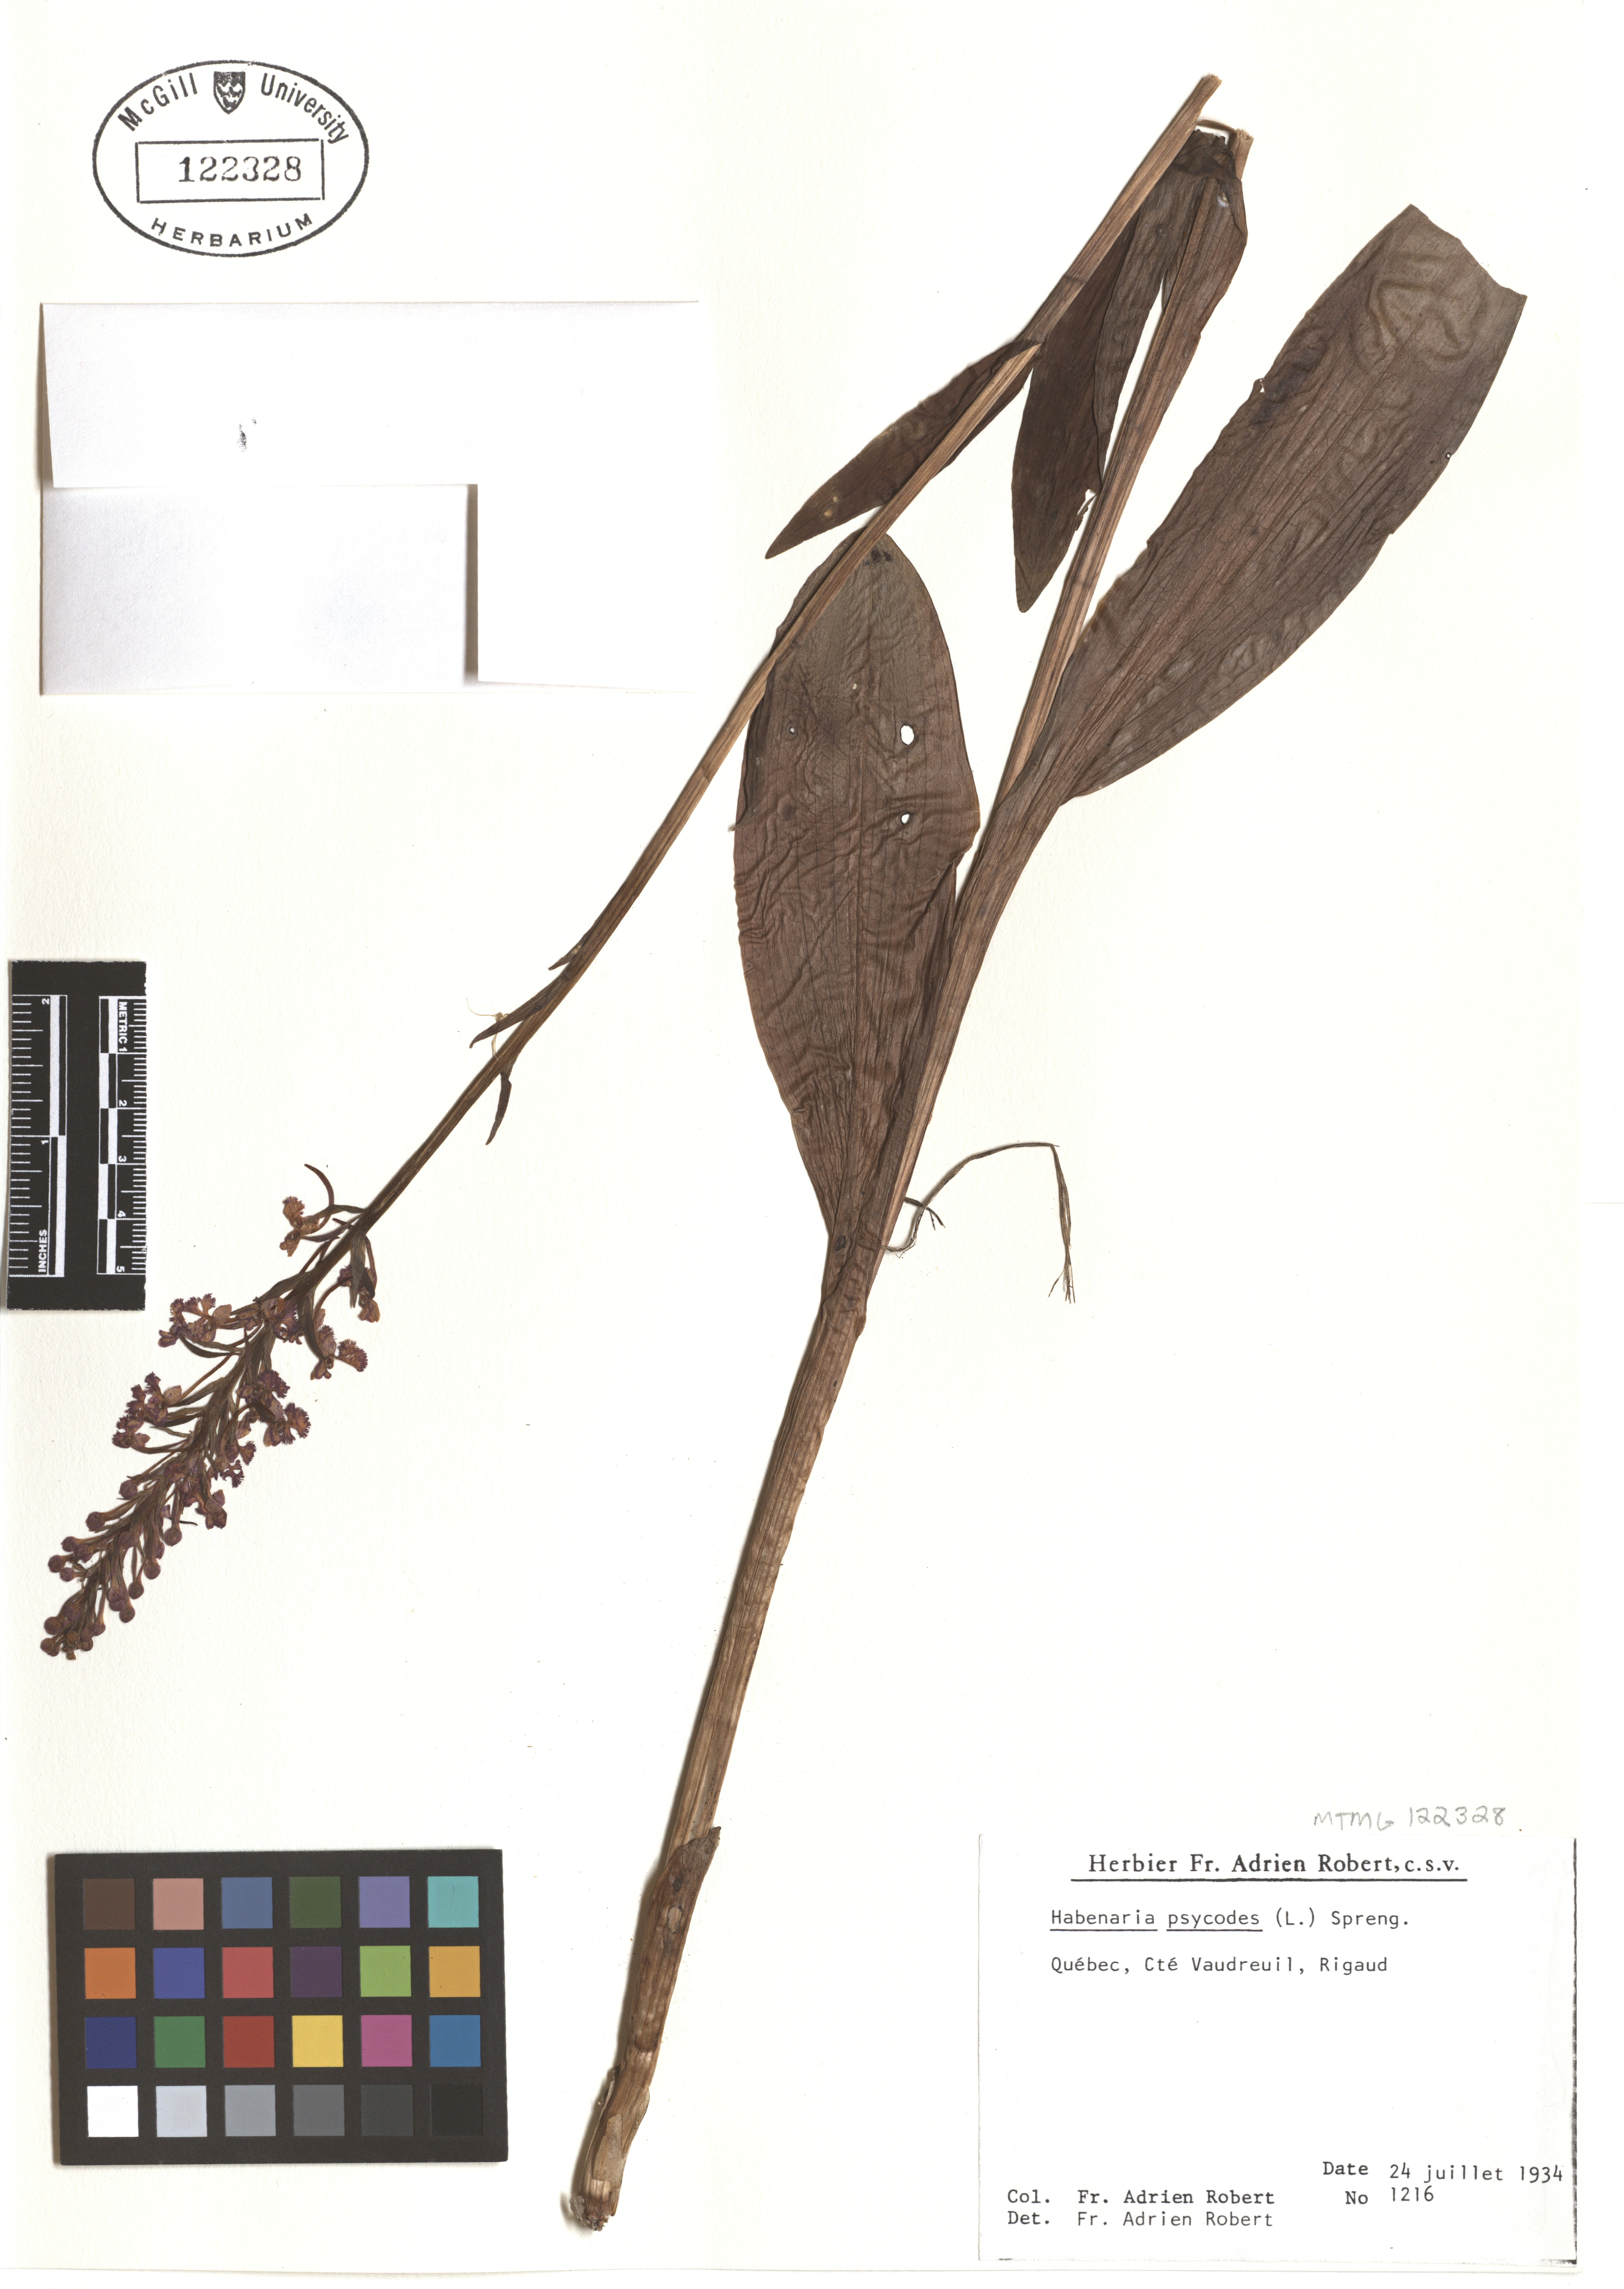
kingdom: Plantae
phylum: Tracheophyta
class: Liliopsida
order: Asparagales
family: Orchidaceae
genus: Platanthera
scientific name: Platanthera psycodes
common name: Lesser purple fringed orchid
